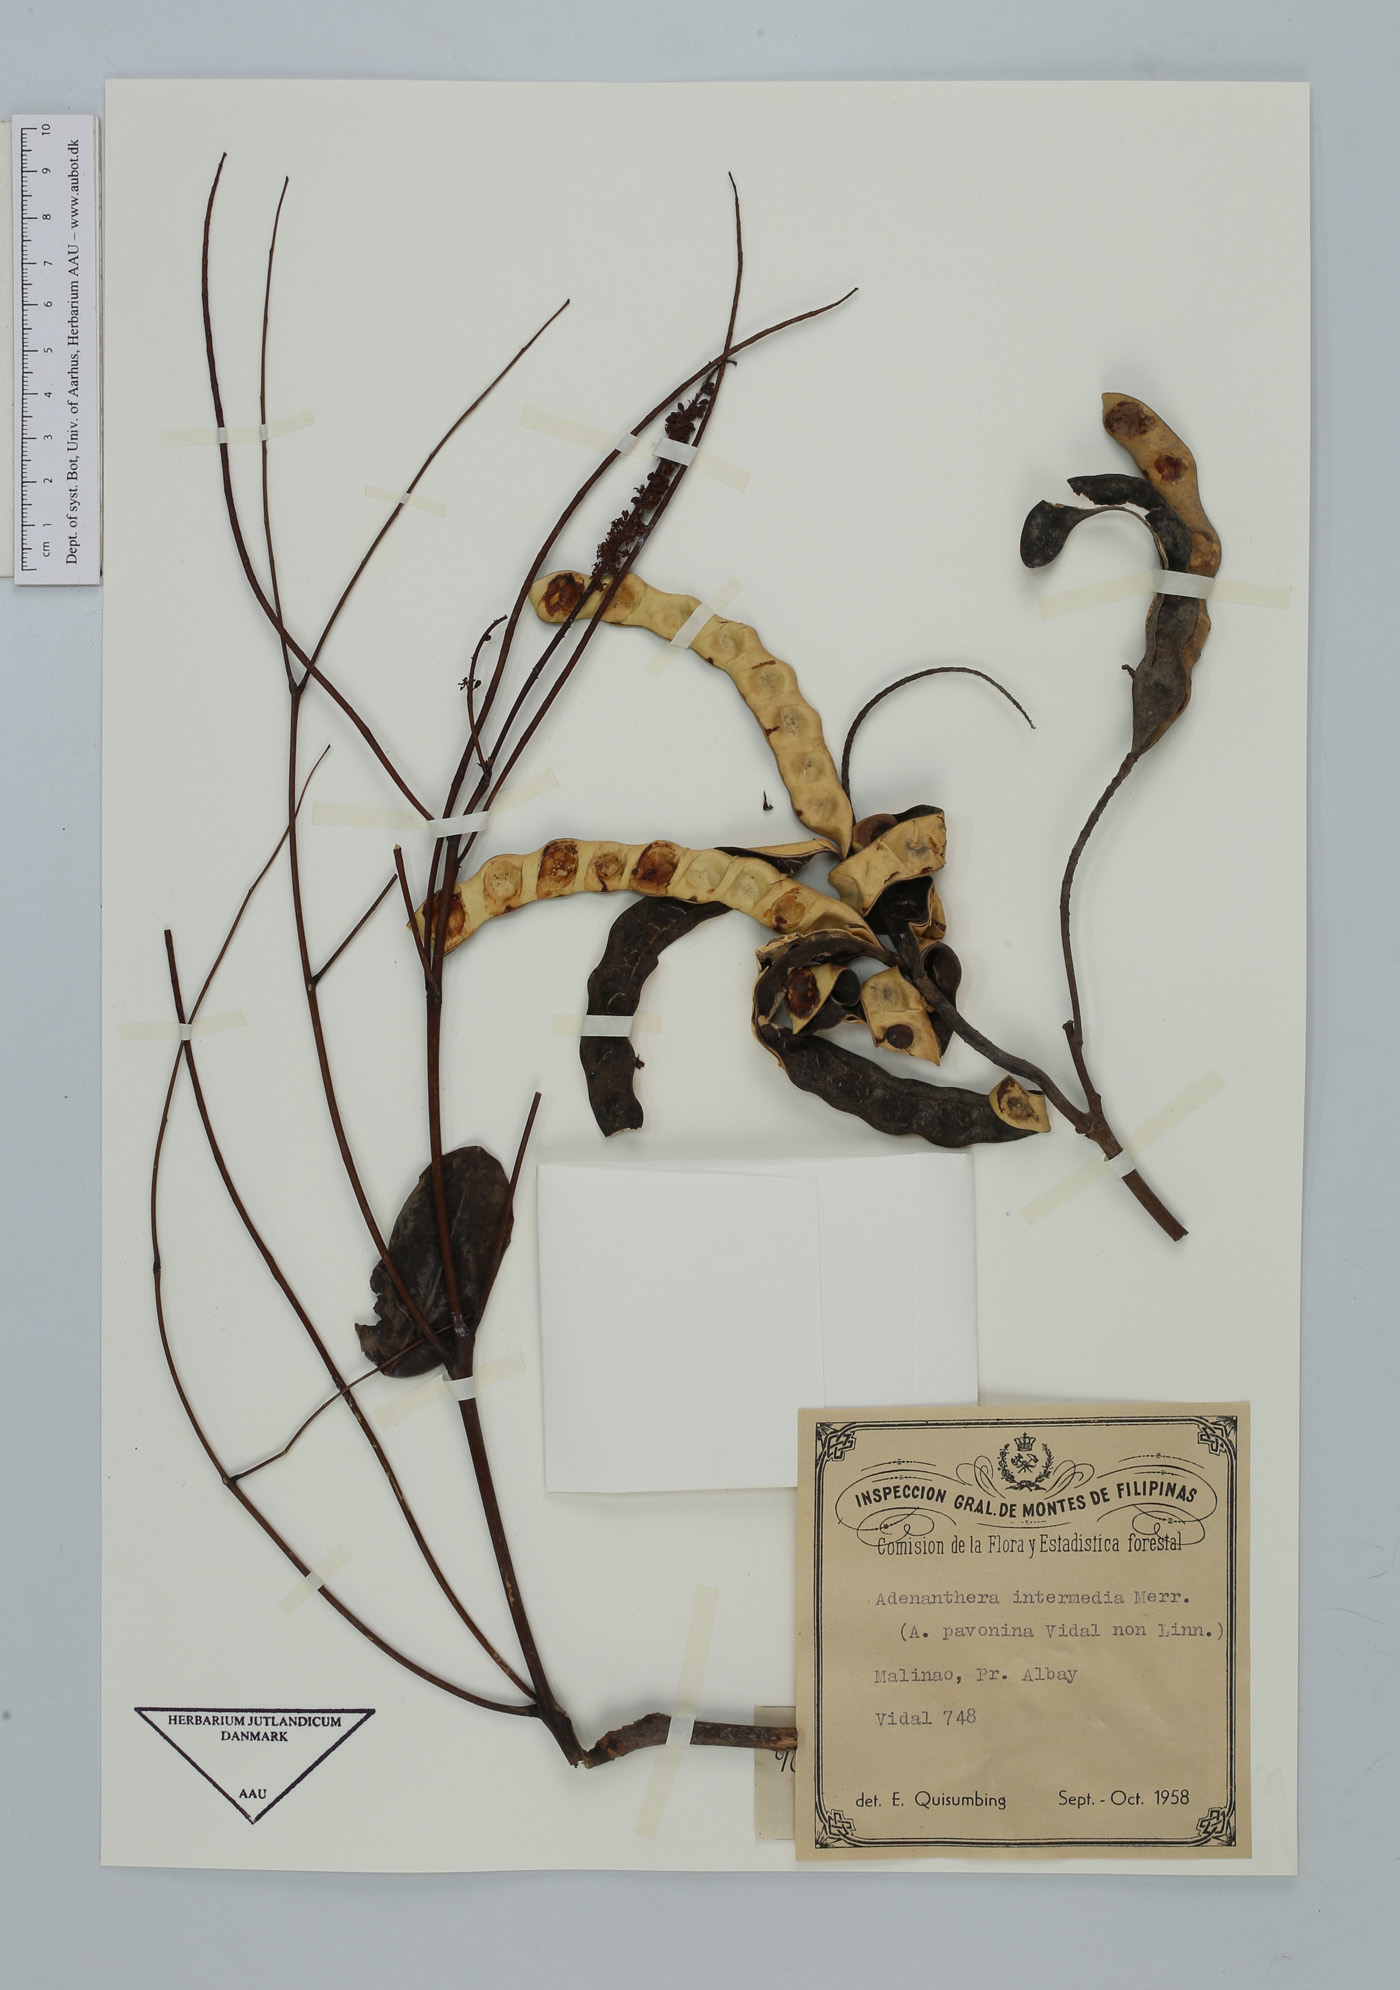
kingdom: Plantae
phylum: Tracheophyta
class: Magnoliopsida
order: Fabales
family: Fabaceae
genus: Adenanthera
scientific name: Adenanthera intermedia
